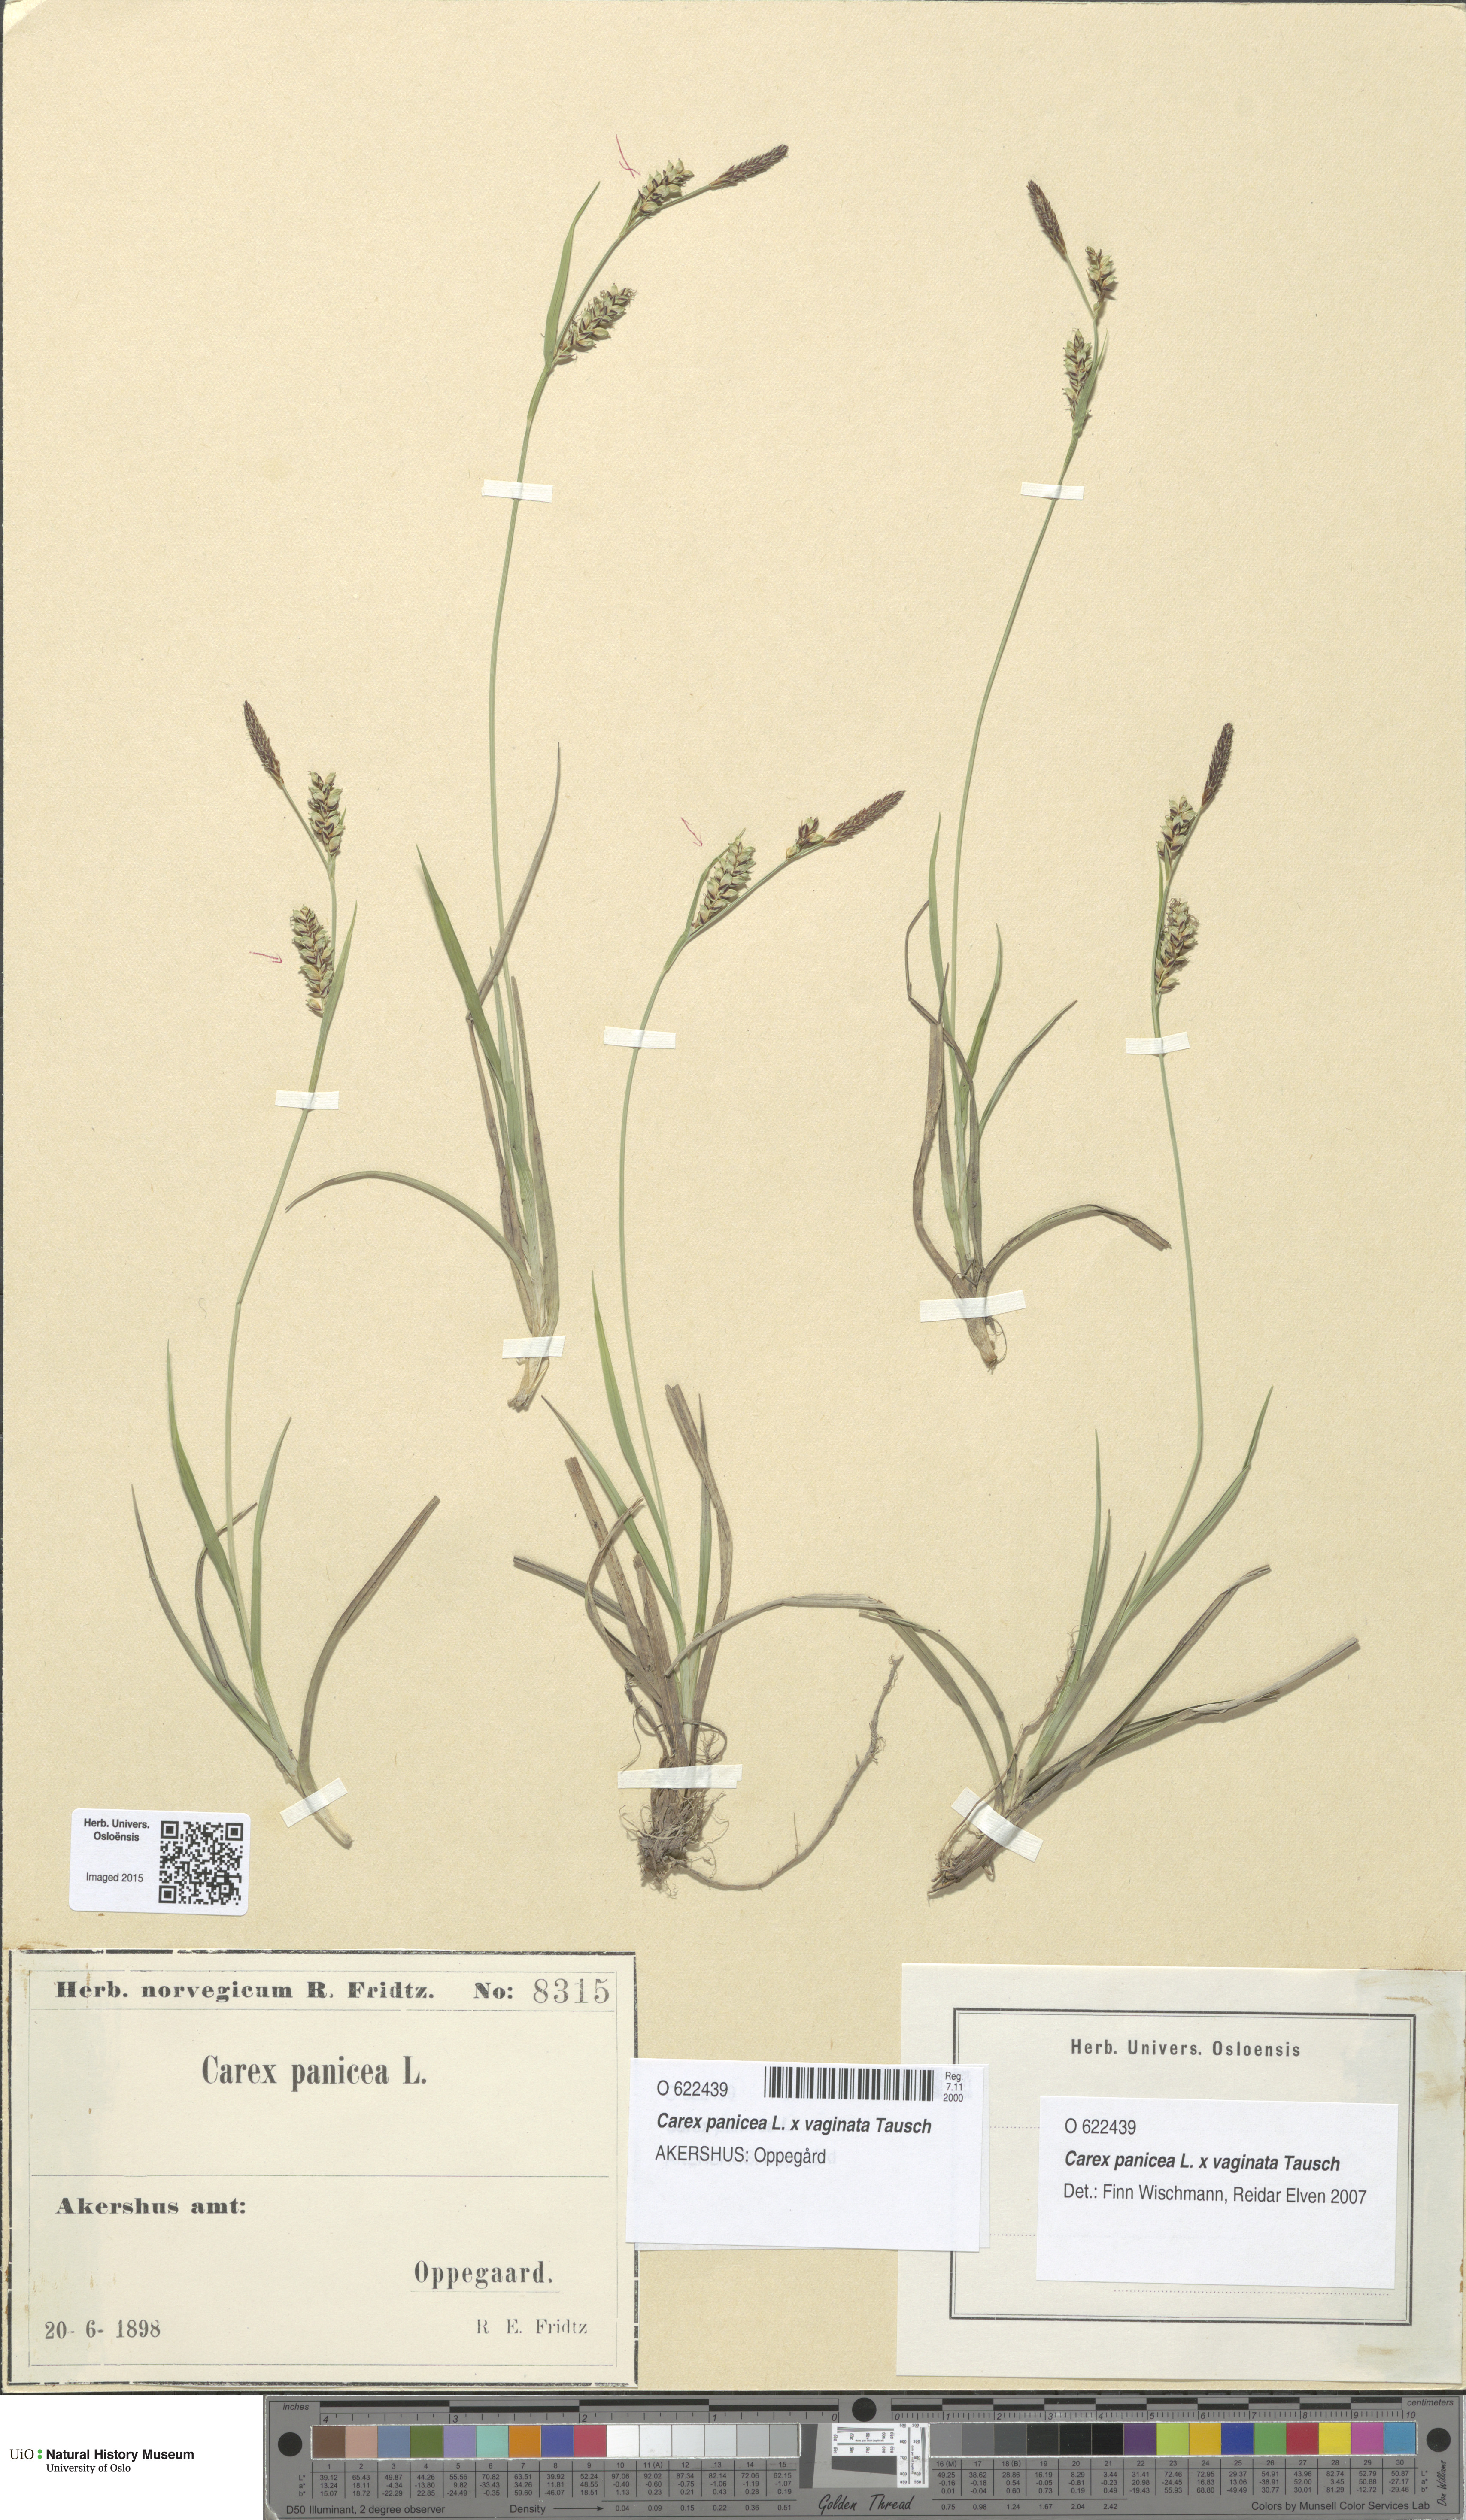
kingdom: Plantae
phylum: Tracheophyta
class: Liliopsida
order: Poales
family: Cyperaceae
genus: Carex
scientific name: Carex
